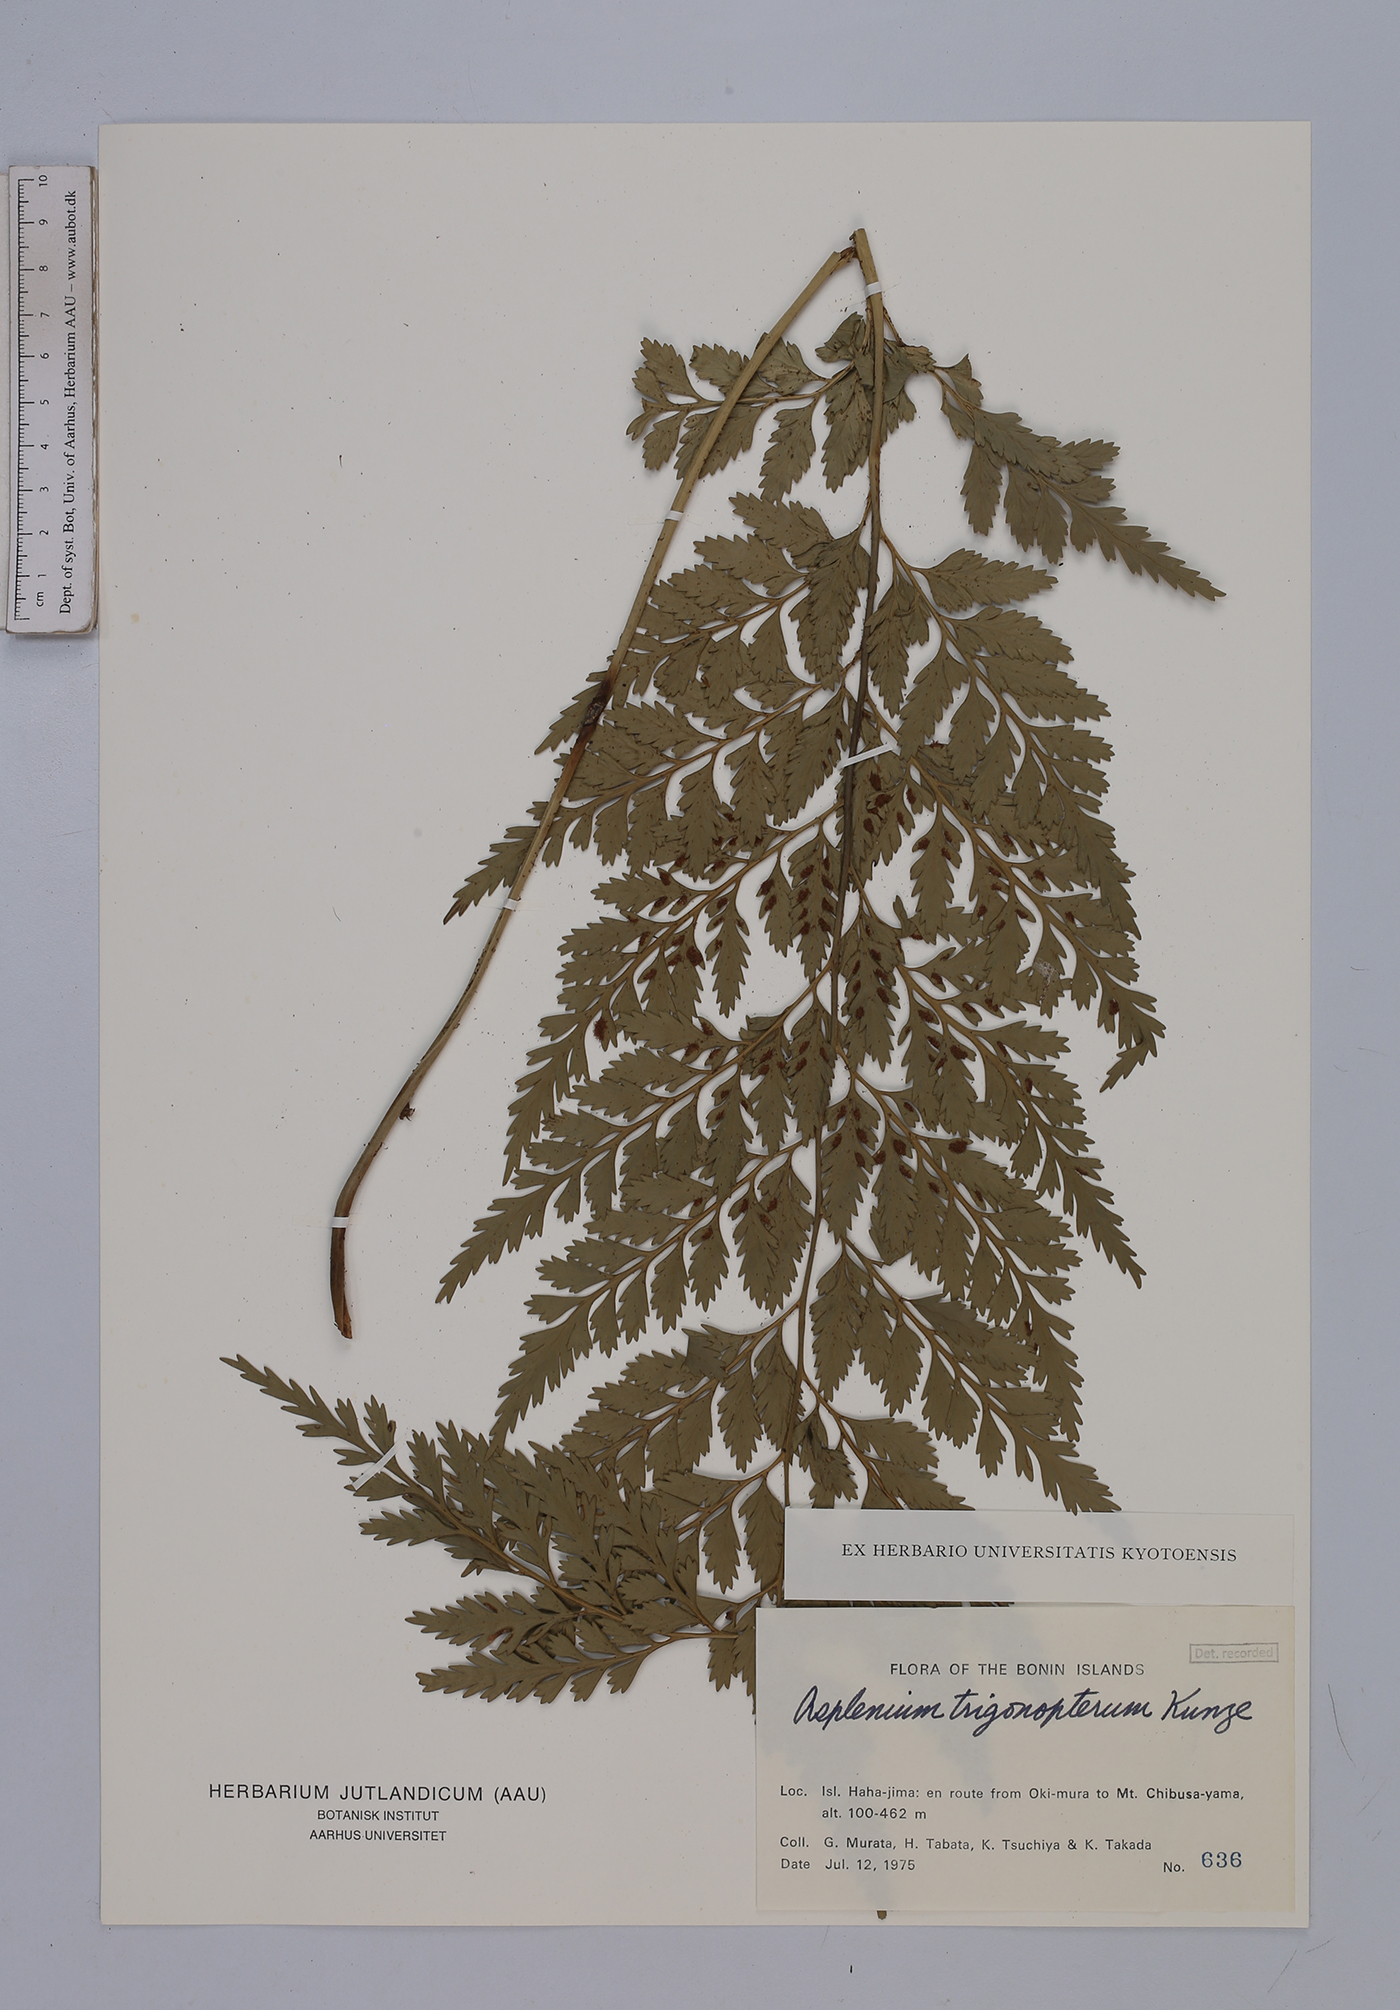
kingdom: Plantae
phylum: Tracheophyta
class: Polypodiopsida
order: Polypodiales
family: Aspleniaceae
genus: Asplenium
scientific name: Asplenium trigonopterum
